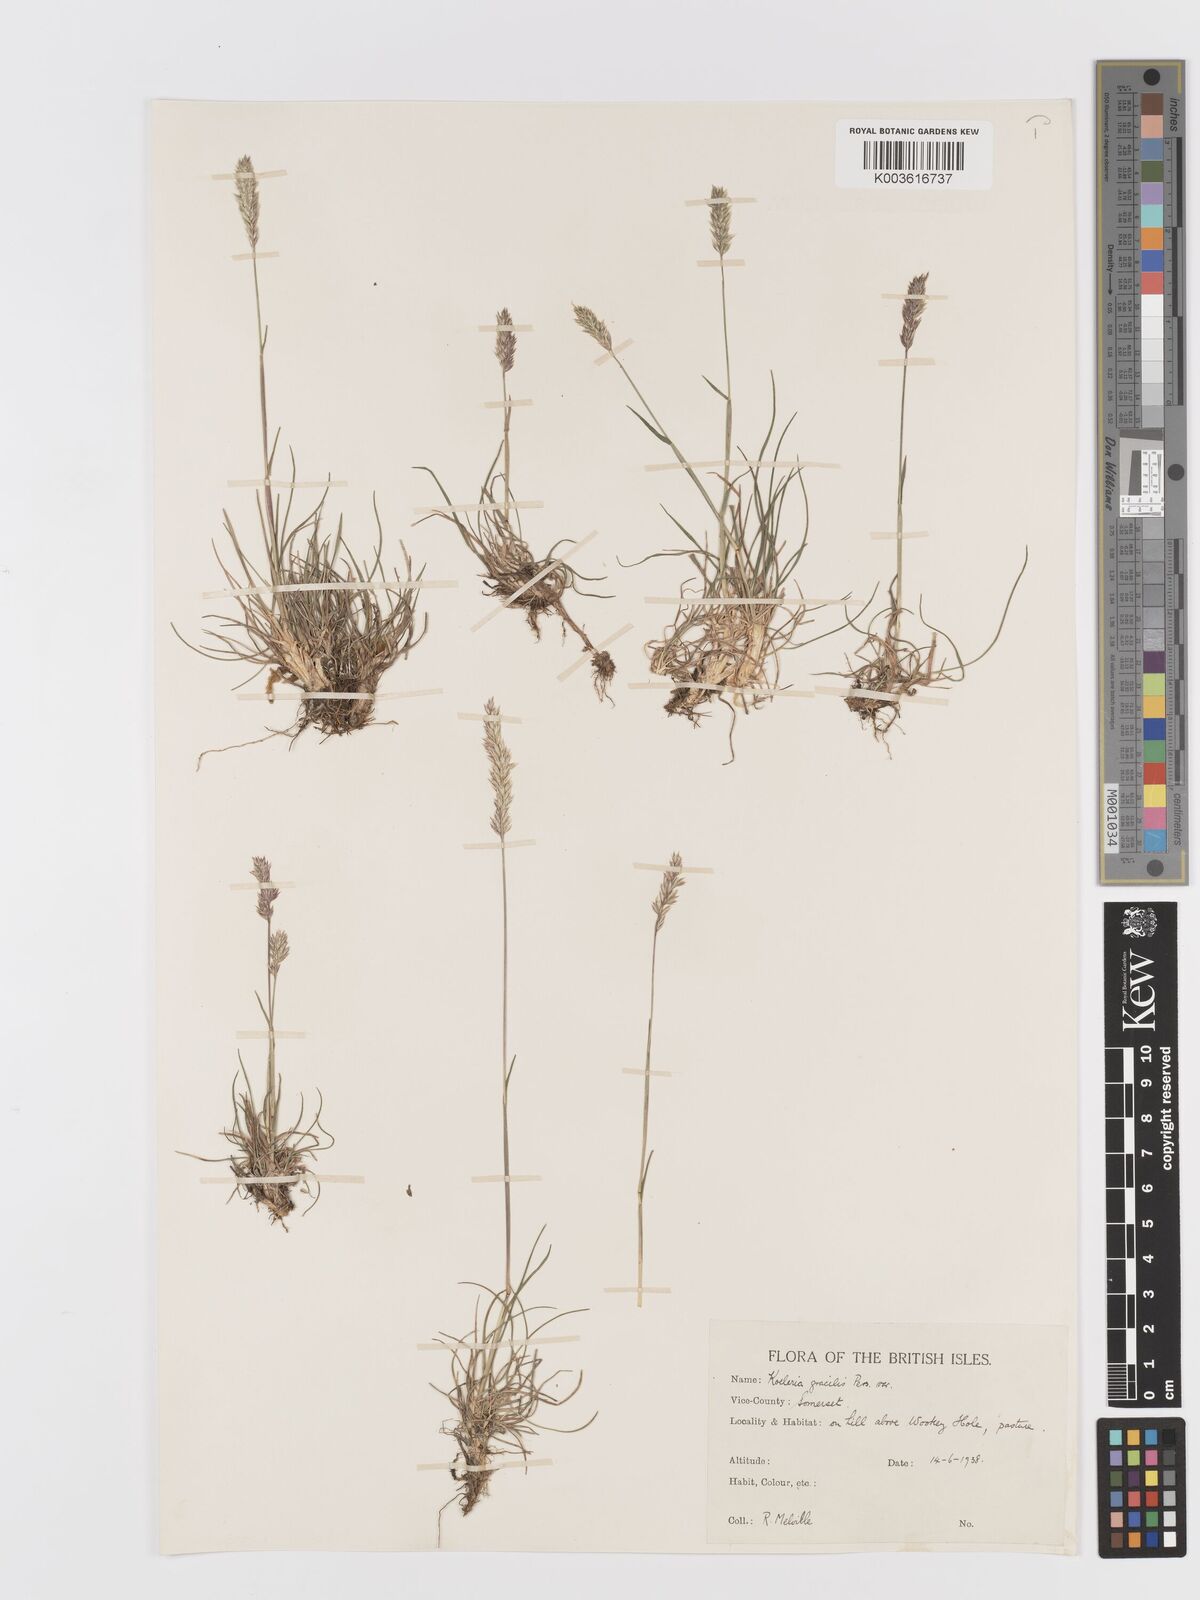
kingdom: Plantae
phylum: Tracheophyta
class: Liliopsida
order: Poales
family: Poaceae
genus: Koeleria
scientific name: Koeleria
